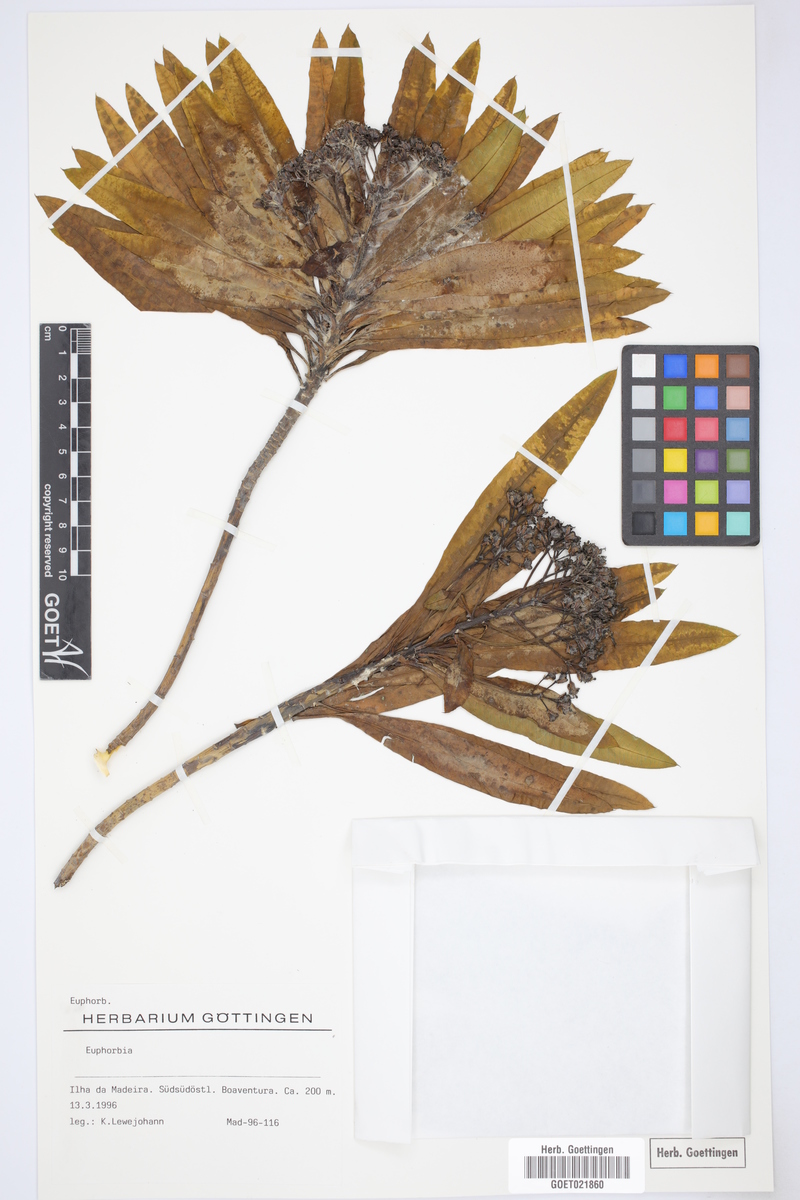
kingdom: Plantae
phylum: Tracheophyta
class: Magnoliopsida
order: Malpighiales
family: Euphorbiaceae
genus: Euphorbia
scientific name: Euphorbia
